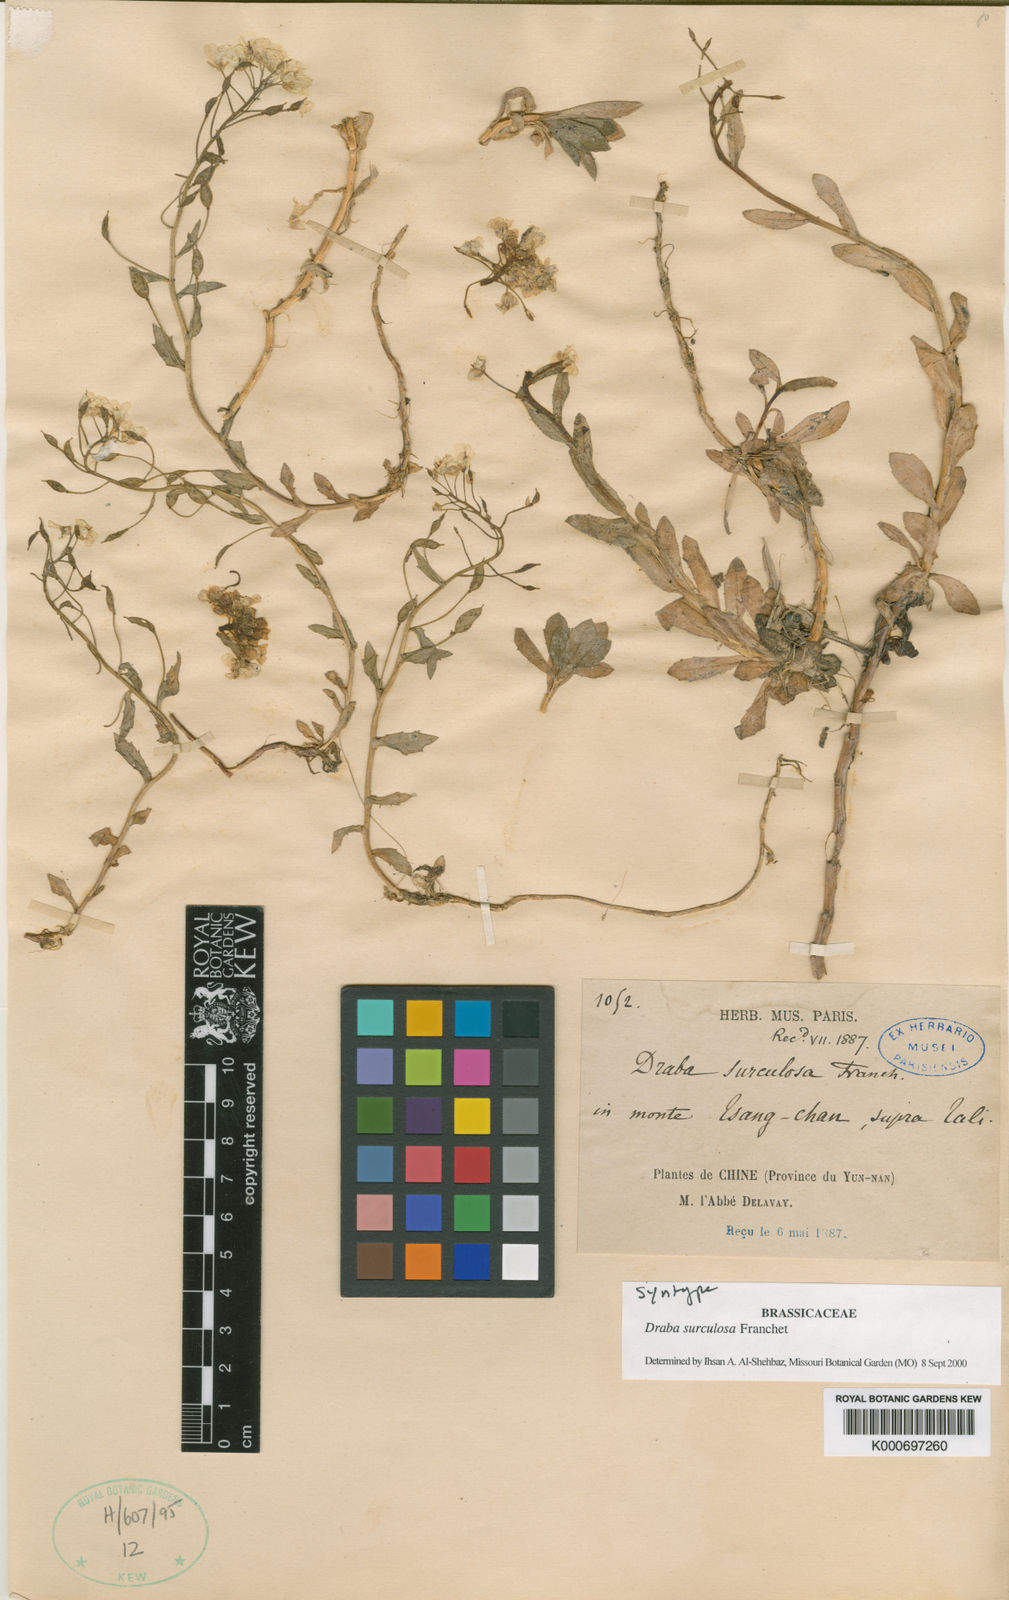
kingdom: Plantae
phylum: Tracheophyta
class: Magnoliopsida
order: Brassicales
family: Brassicaceae
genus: Draba
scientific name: Draba surculosa
